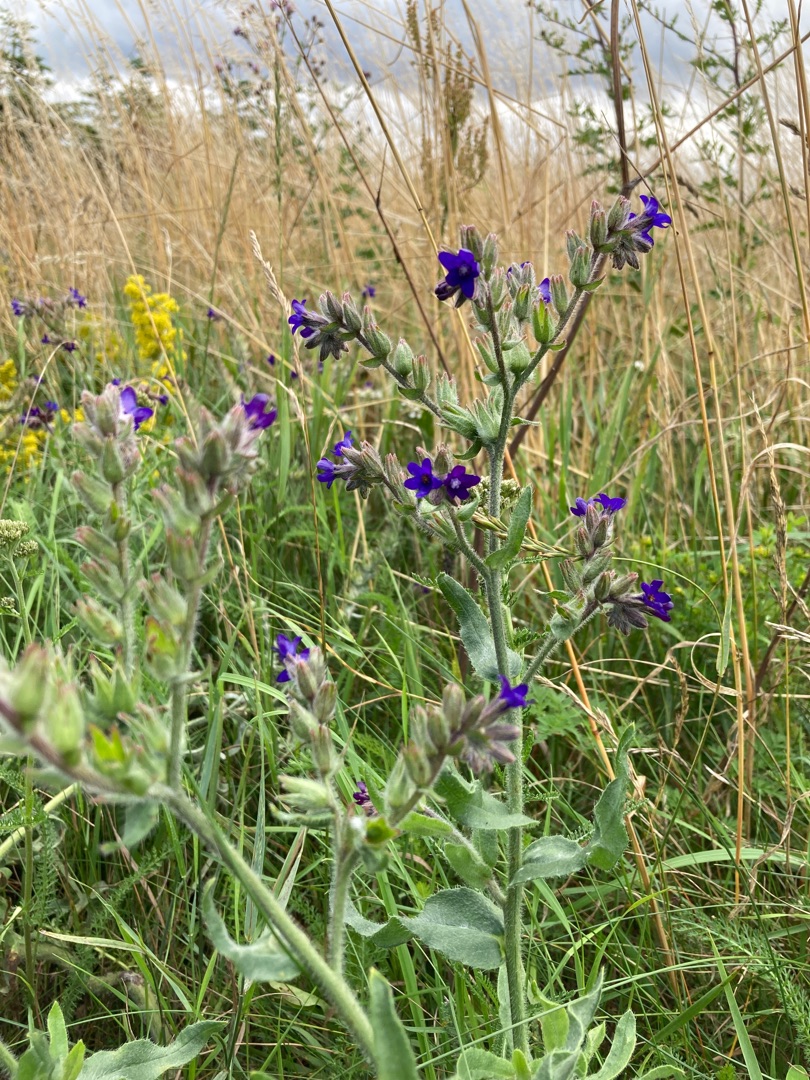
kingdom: Plantae
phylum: Tracheophyta
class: Magnoliopsida
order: Boraginales
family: Boraginaceae
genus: Anchusa
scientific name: Anchusa officinalis
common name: Læge-oksetunge
